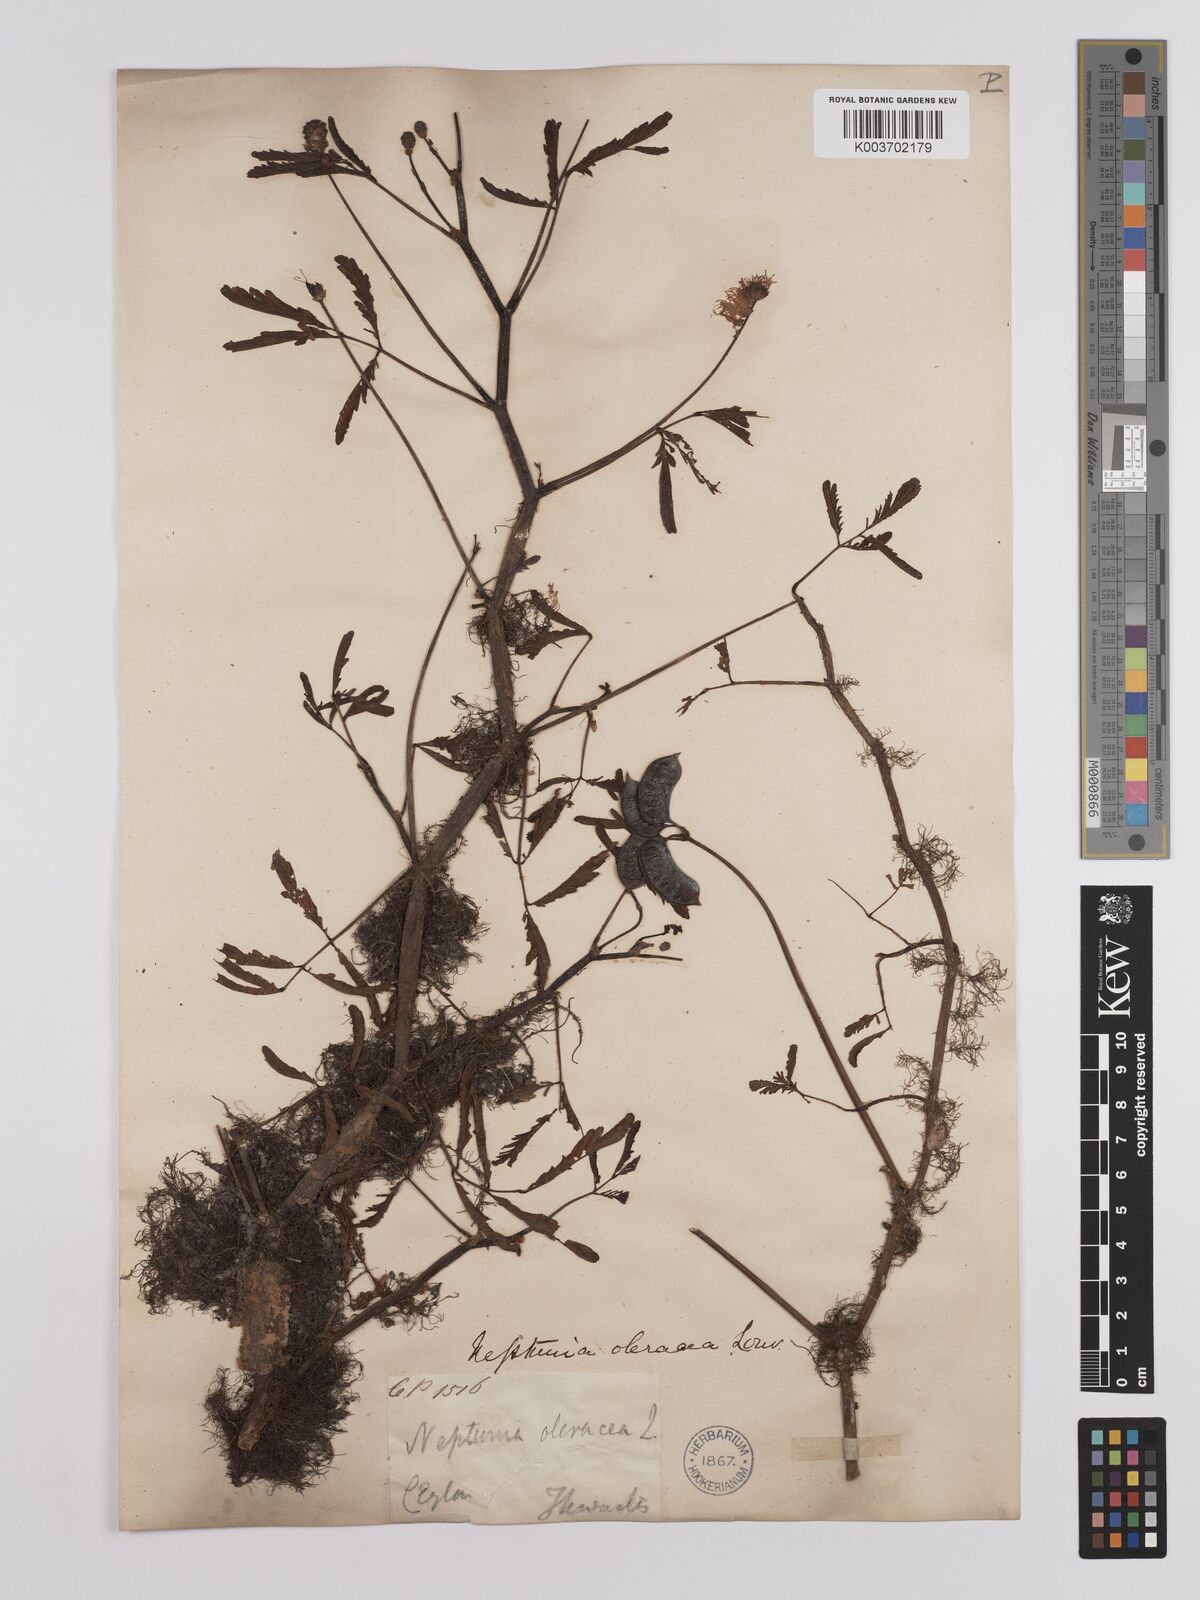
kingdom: Plantae
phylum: Tracheophyta
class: Magnoliopsida
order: Fabales
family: Fabaceae
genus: Neptunia
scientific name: Neptunia prostrata
